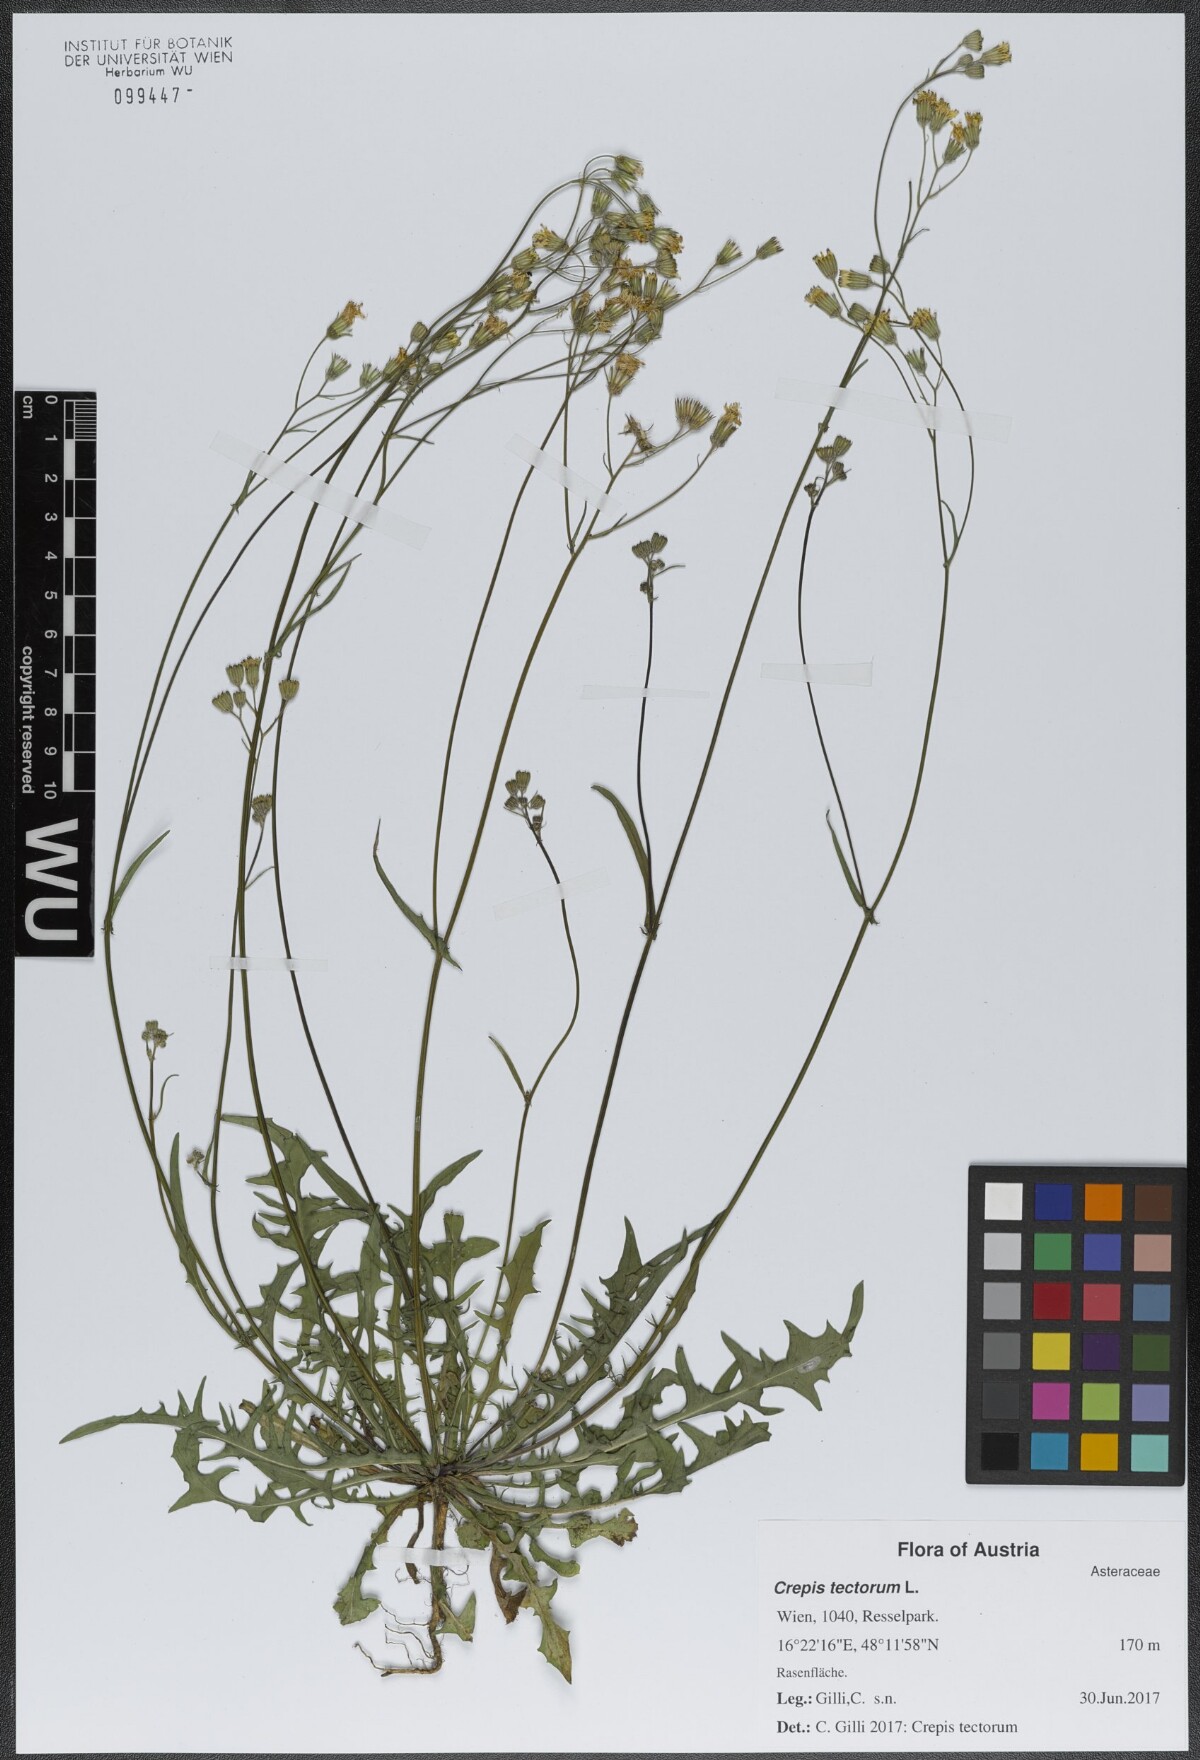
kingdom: Plantae
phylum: Tracheophyta
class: Magnoliopsida
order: Asterales
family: Asteraceae
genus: Crepis
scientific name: Crepis tectorum
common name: Narrow-leaved hawk's-beard
